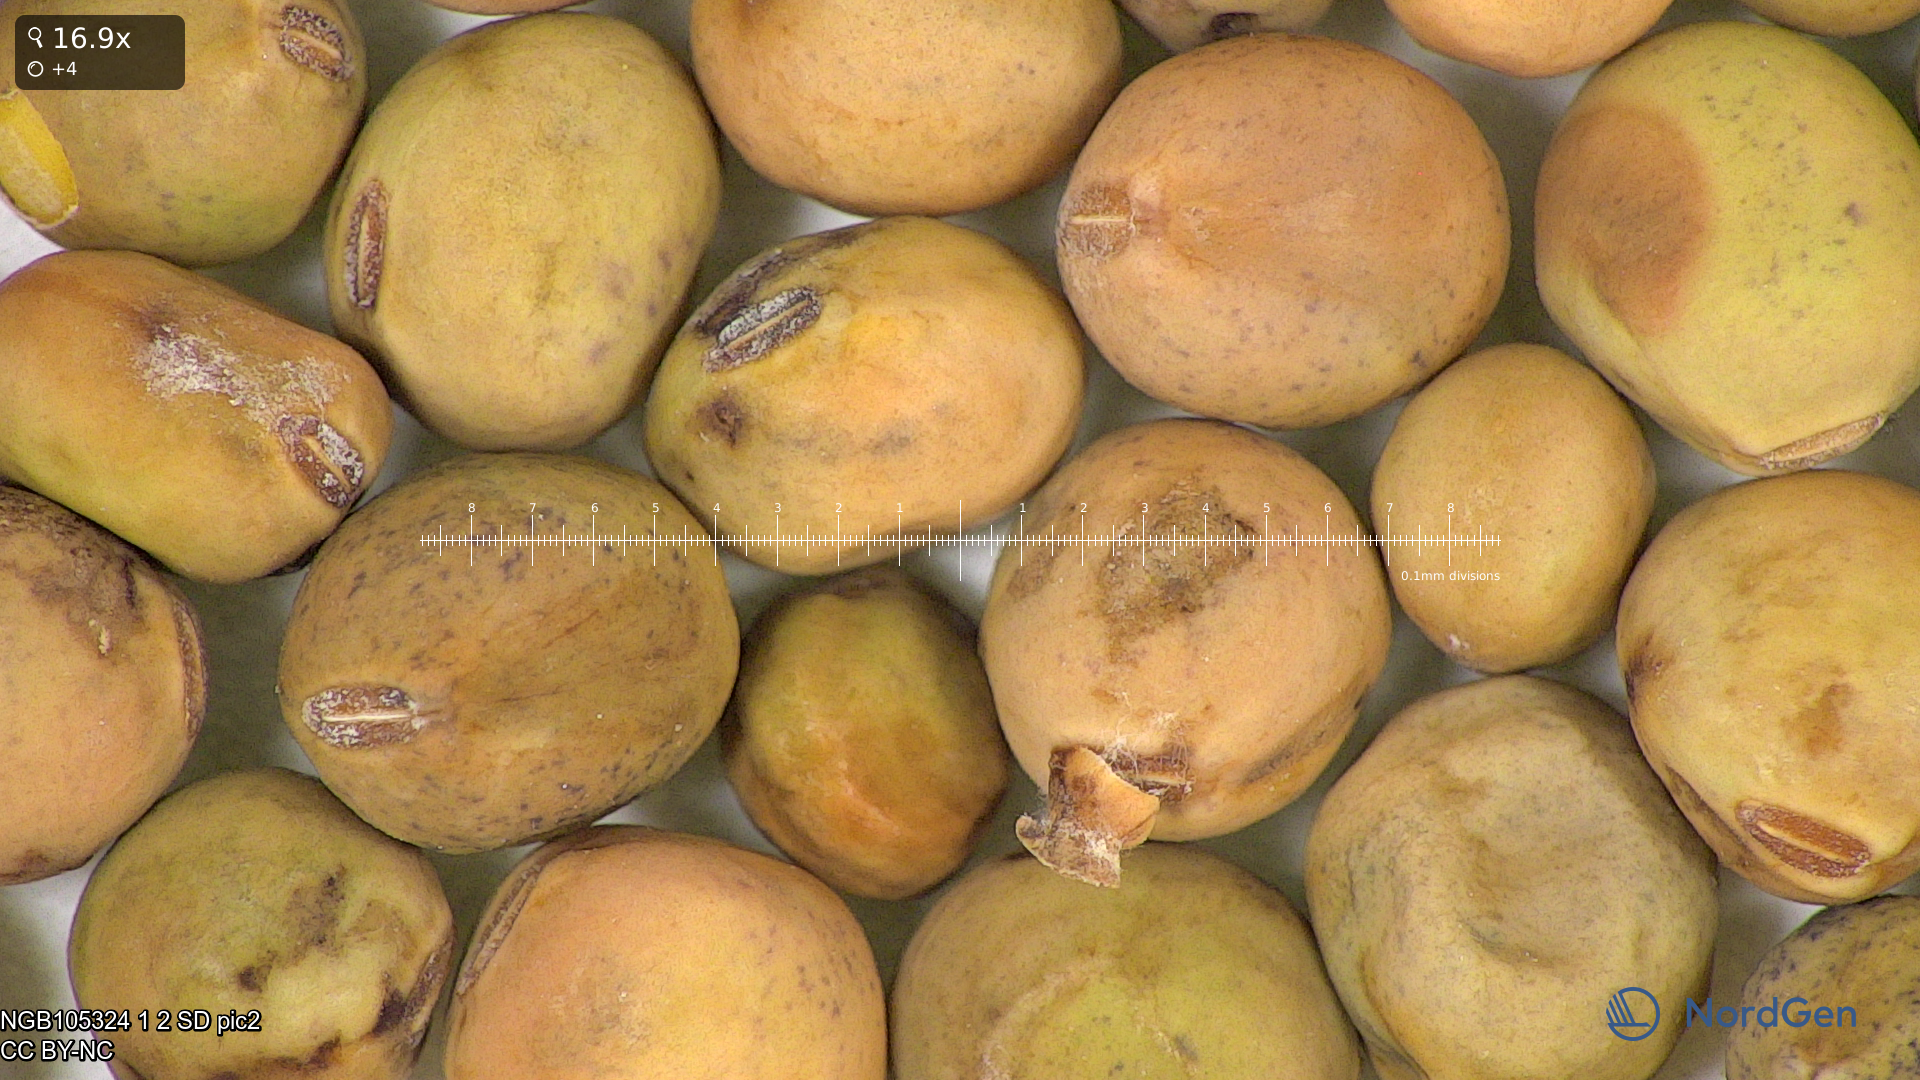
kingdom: Plantae
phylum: Tracheophyta
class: Magnoliopsida
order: Fabales
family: Fabaceae
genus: Lathyrus
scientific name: Lathyrus oleraceus
